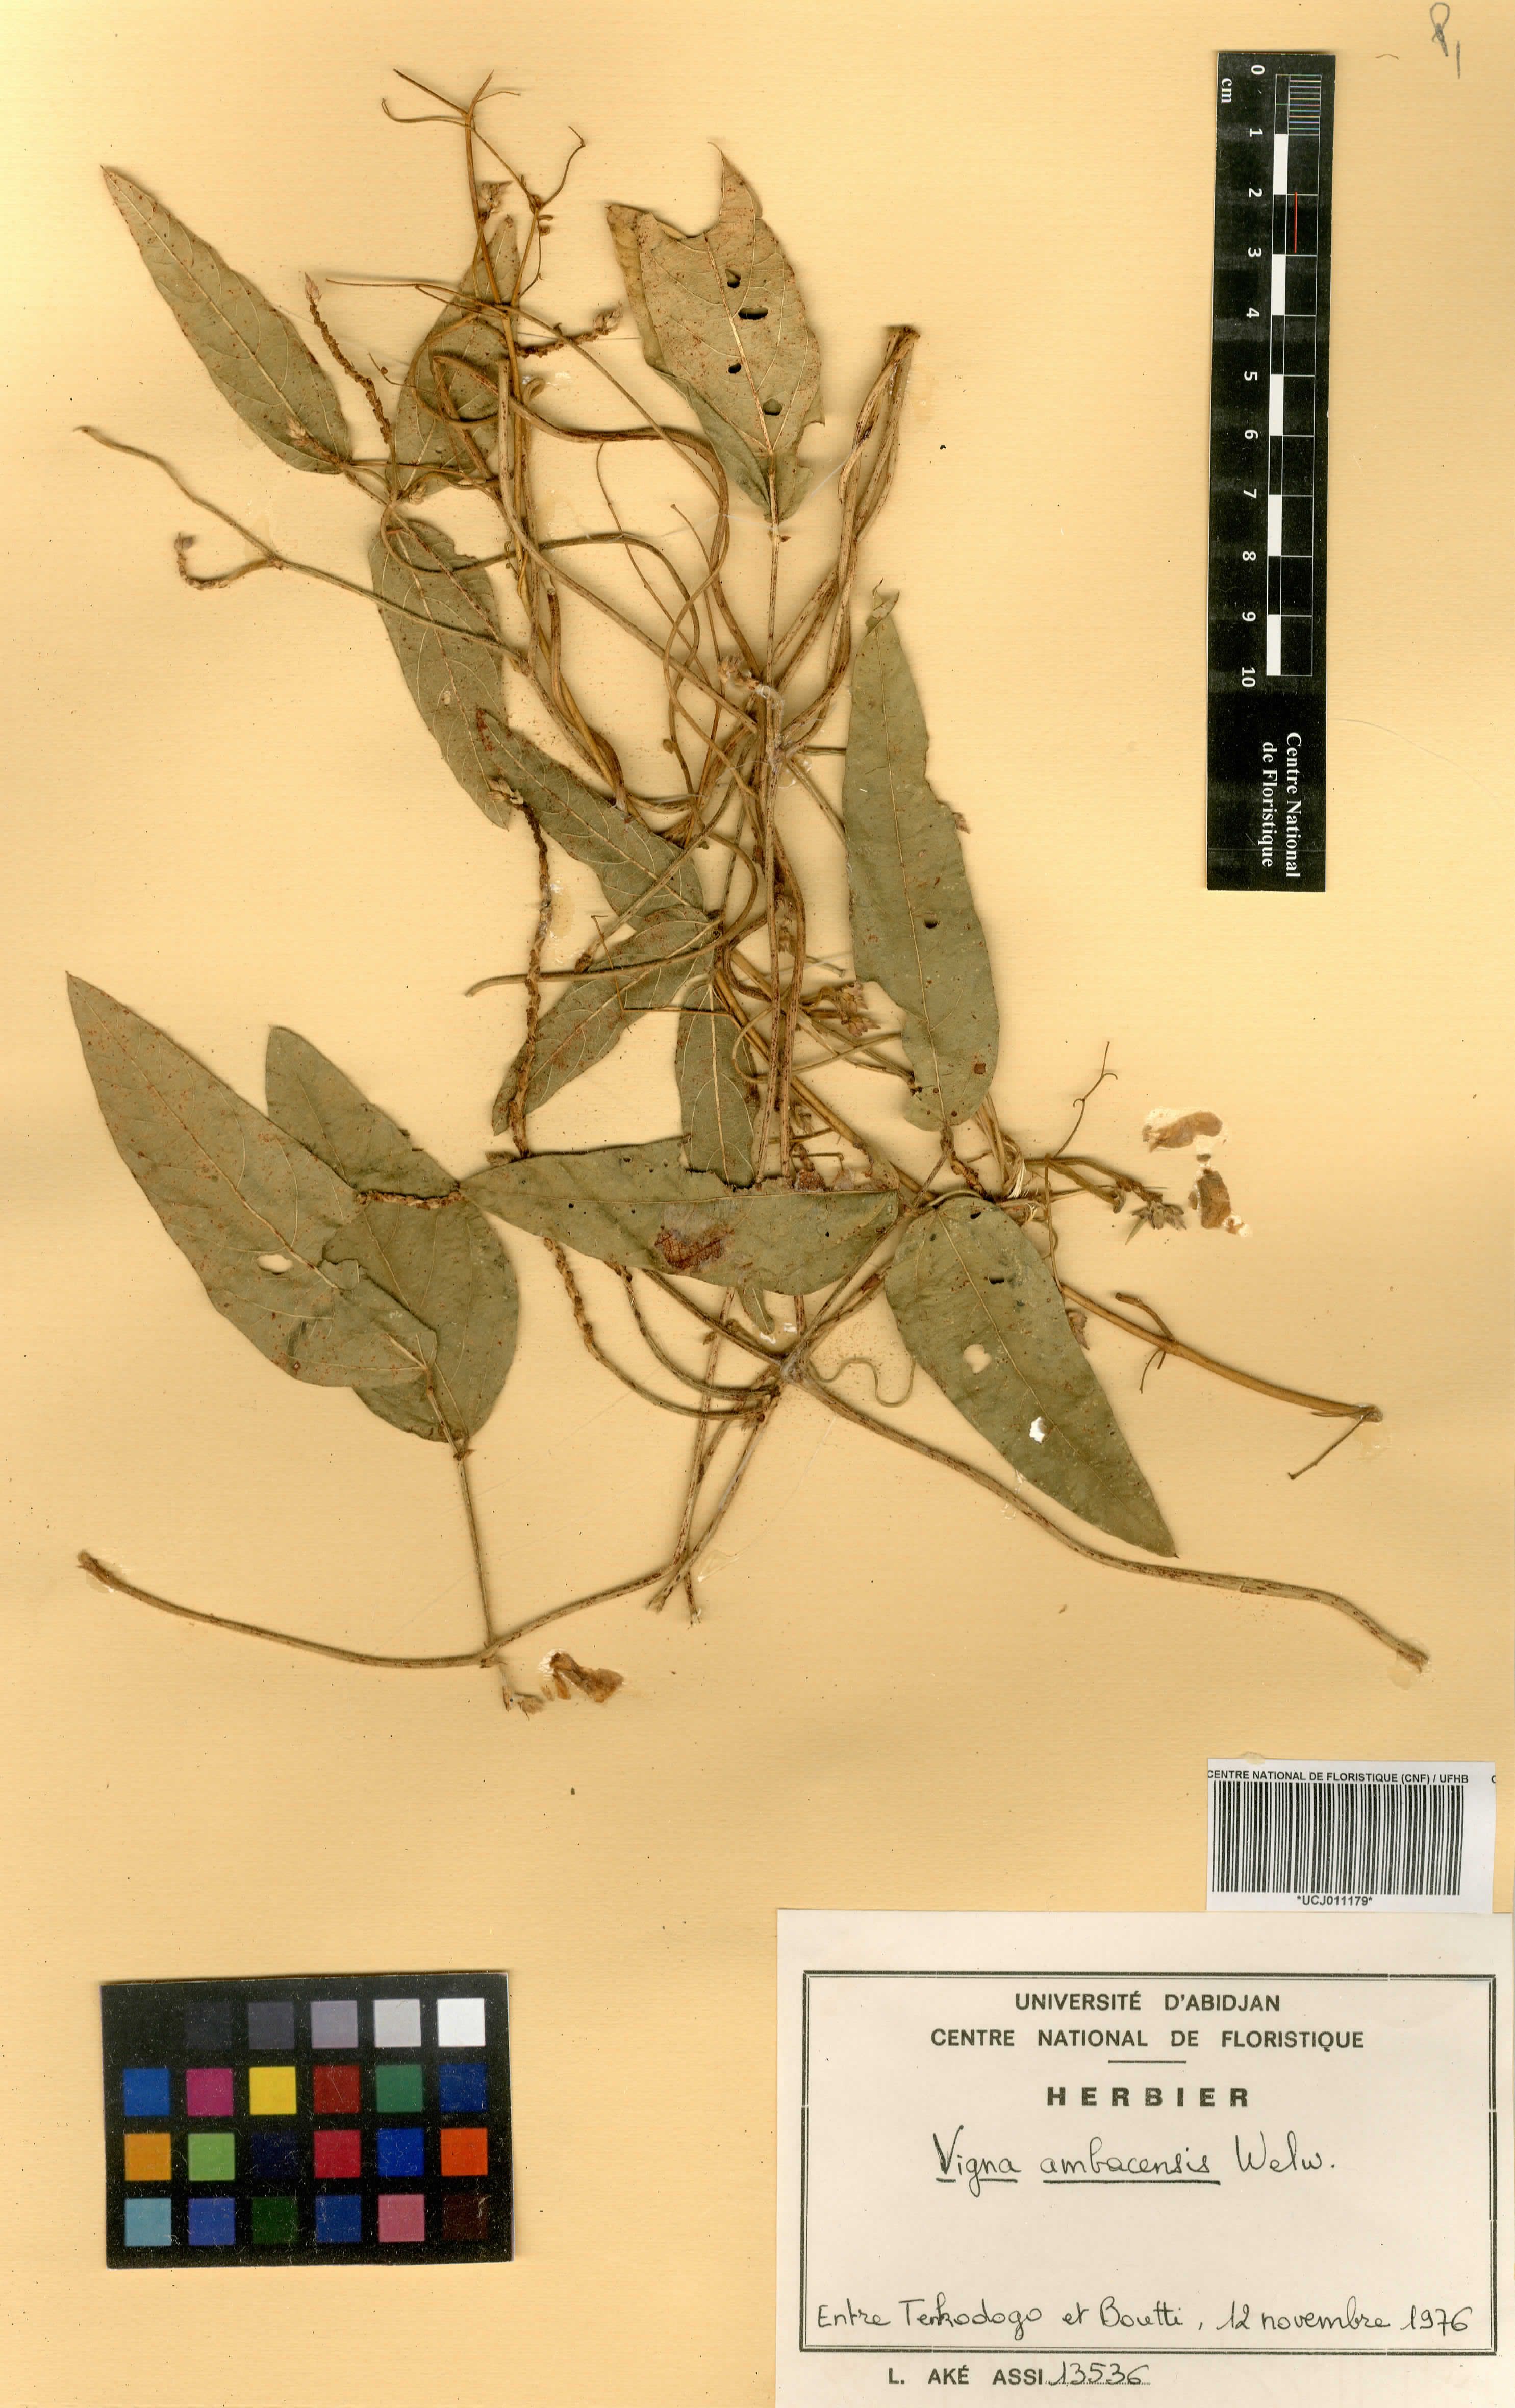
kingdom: Plantae
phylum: Tracheophyta
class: Magnoliopsida
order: Fabales
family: Fabaceae
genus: Vigna
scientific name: Vigna ambacensis
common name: Tsarkiyan zomo
